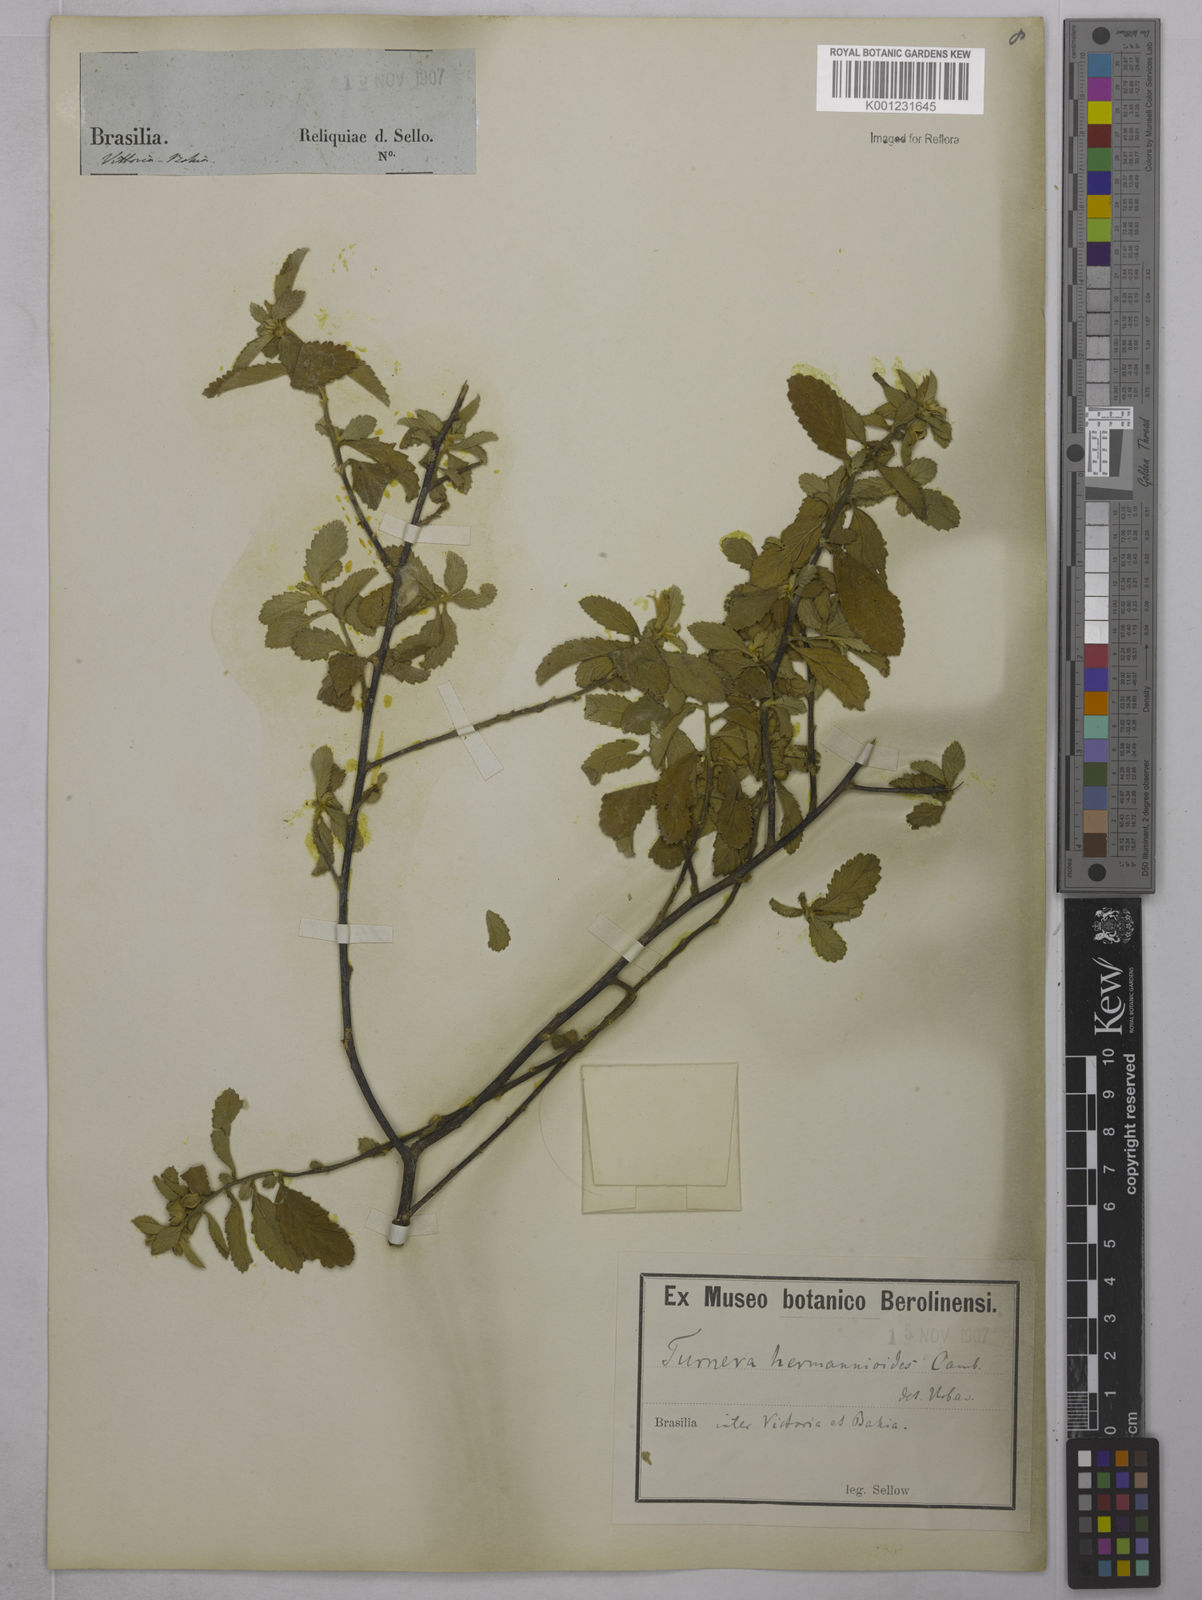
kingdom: Plantae
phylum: Tracheophyta
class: Magnoliopsida
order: Malpighiales
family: Turneraceae
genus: Turnera
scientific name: Turnera hermannioides
